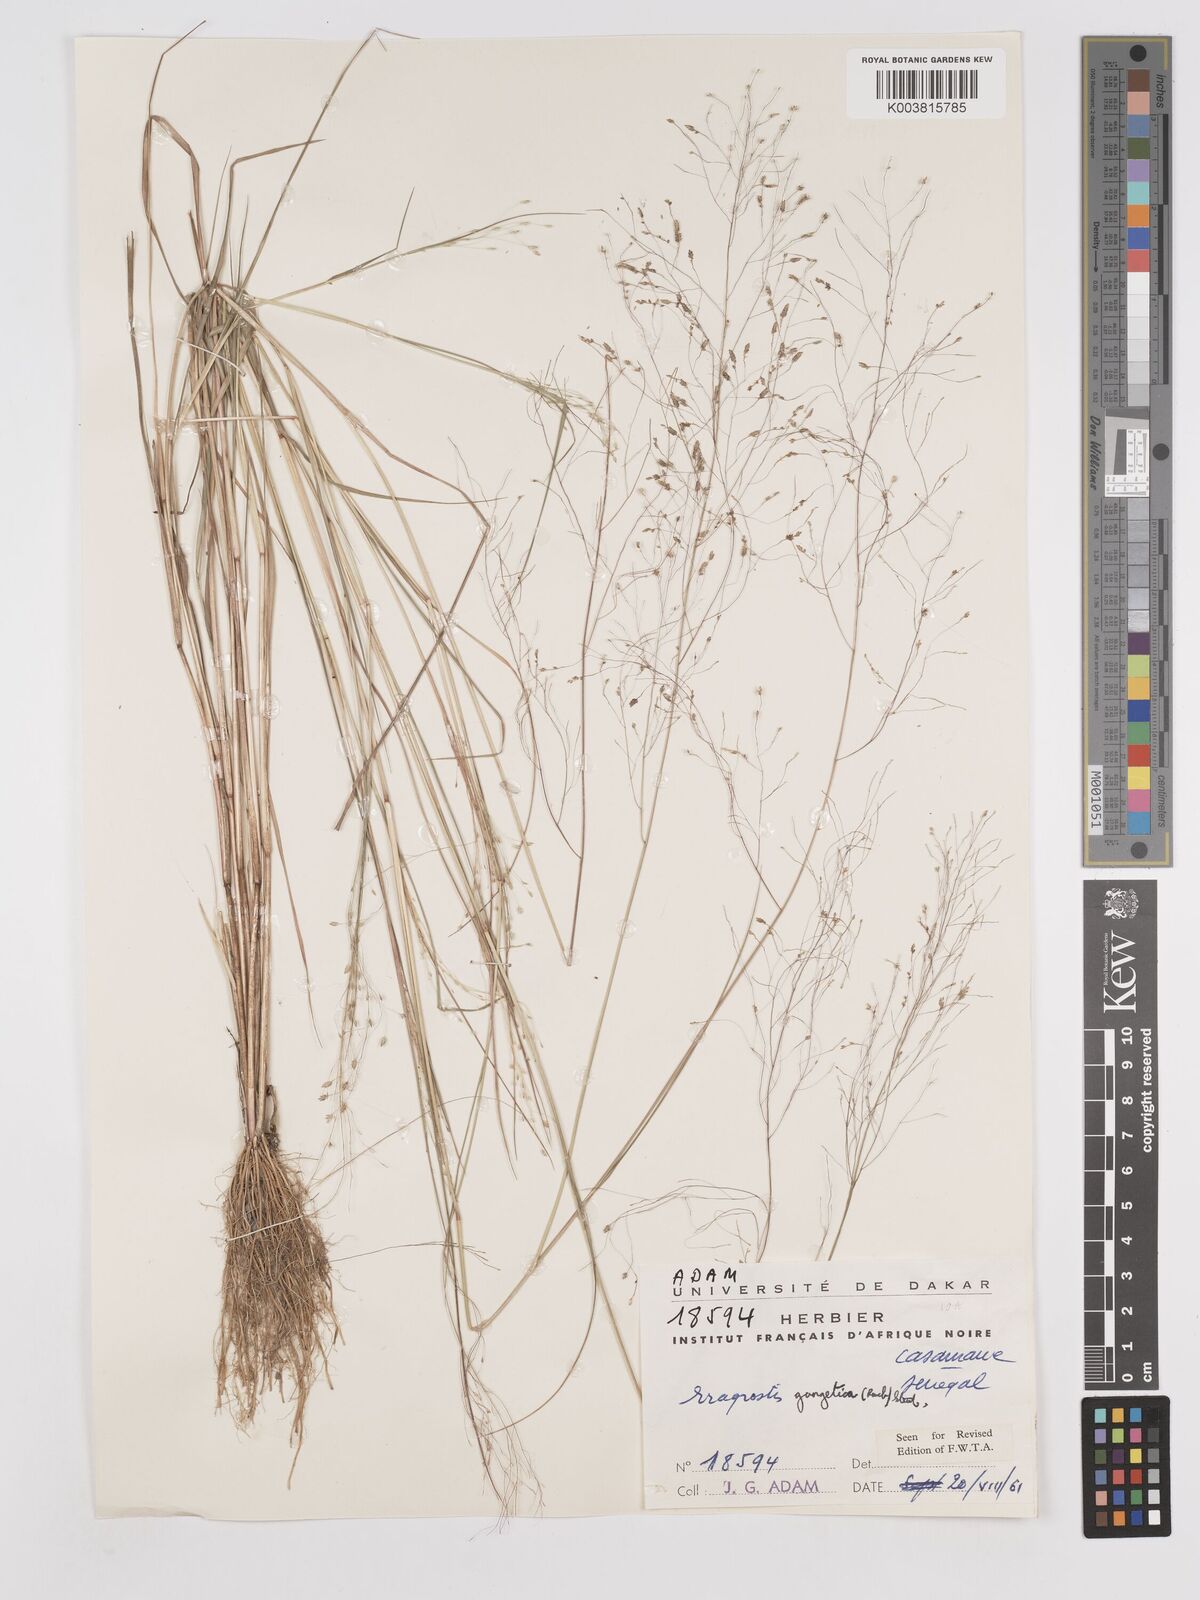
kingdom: Plantae
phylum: Tracheophyta
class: Liliopsida
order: Poales
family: Poaceae
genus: Eragrostis
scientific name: Eragrostis gangetica
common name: Slimflower lovegrass
